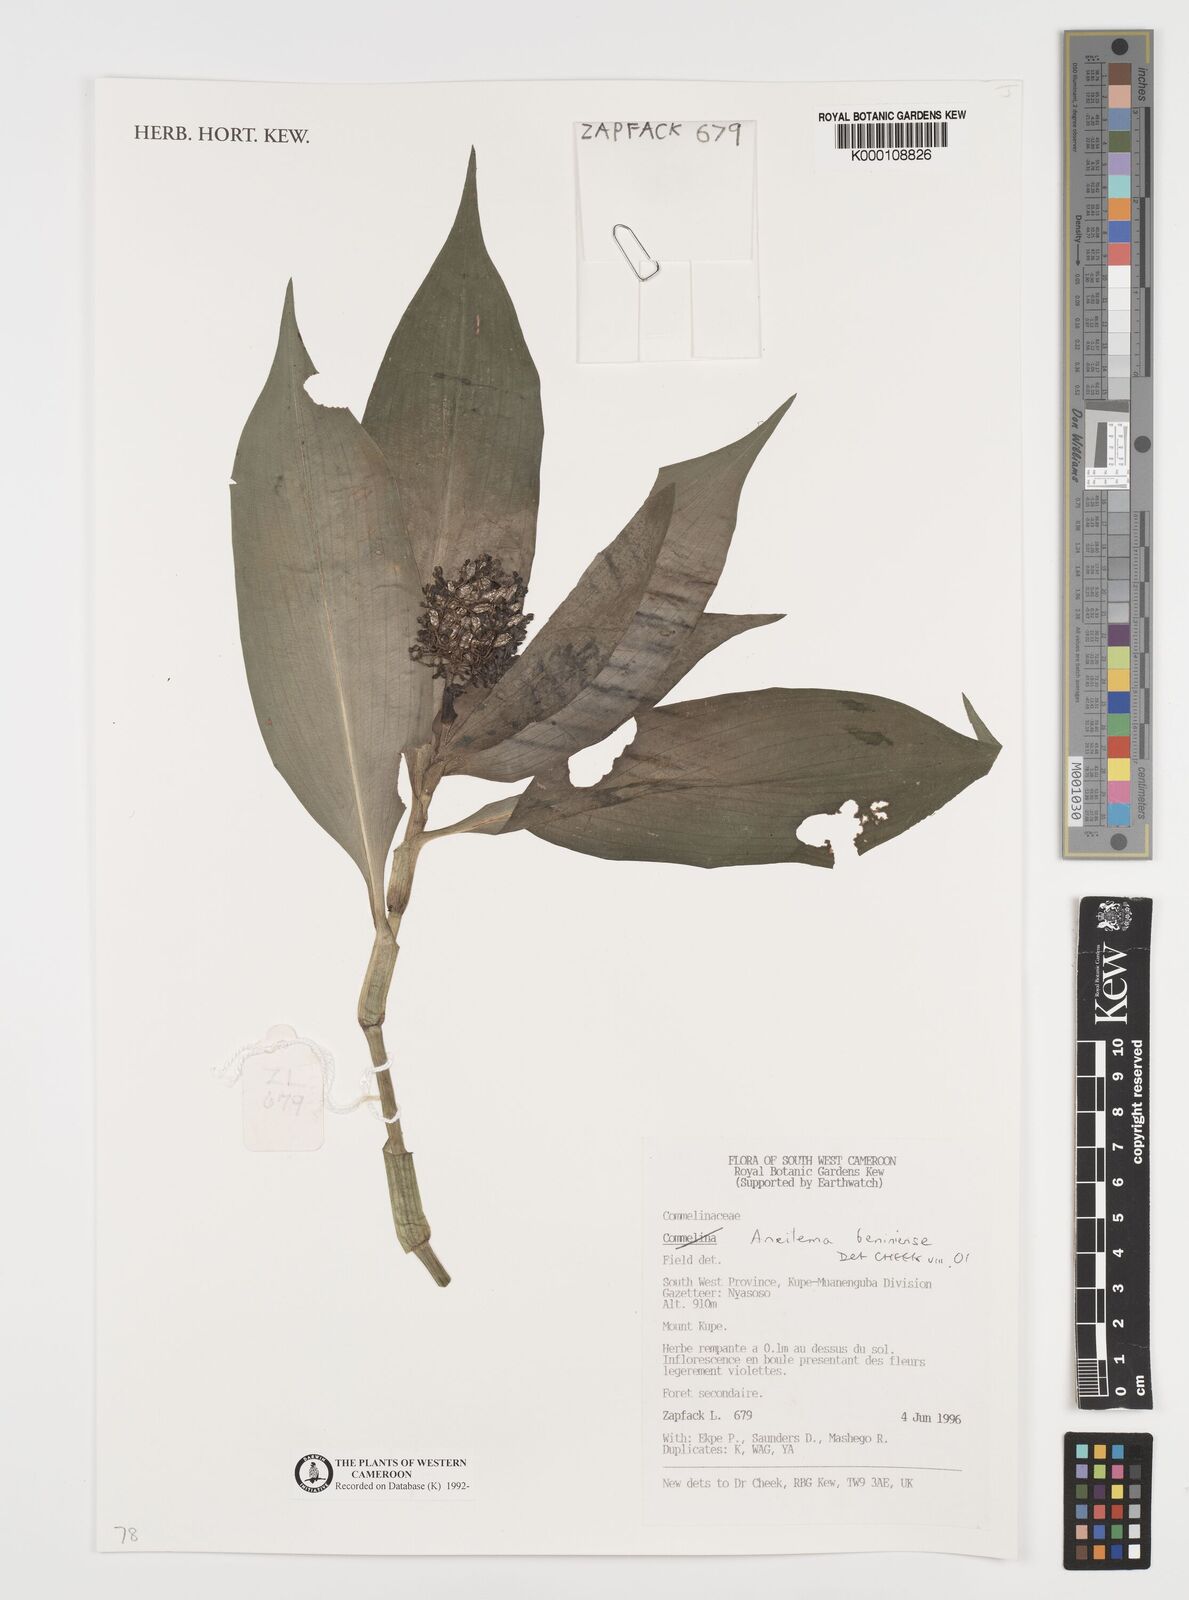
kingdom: Plantae
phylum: Tracheophyta
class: Liliopsida
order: Commelinales
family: Commelinaceae
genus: Aneilema
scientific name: Aneilema beniniense
